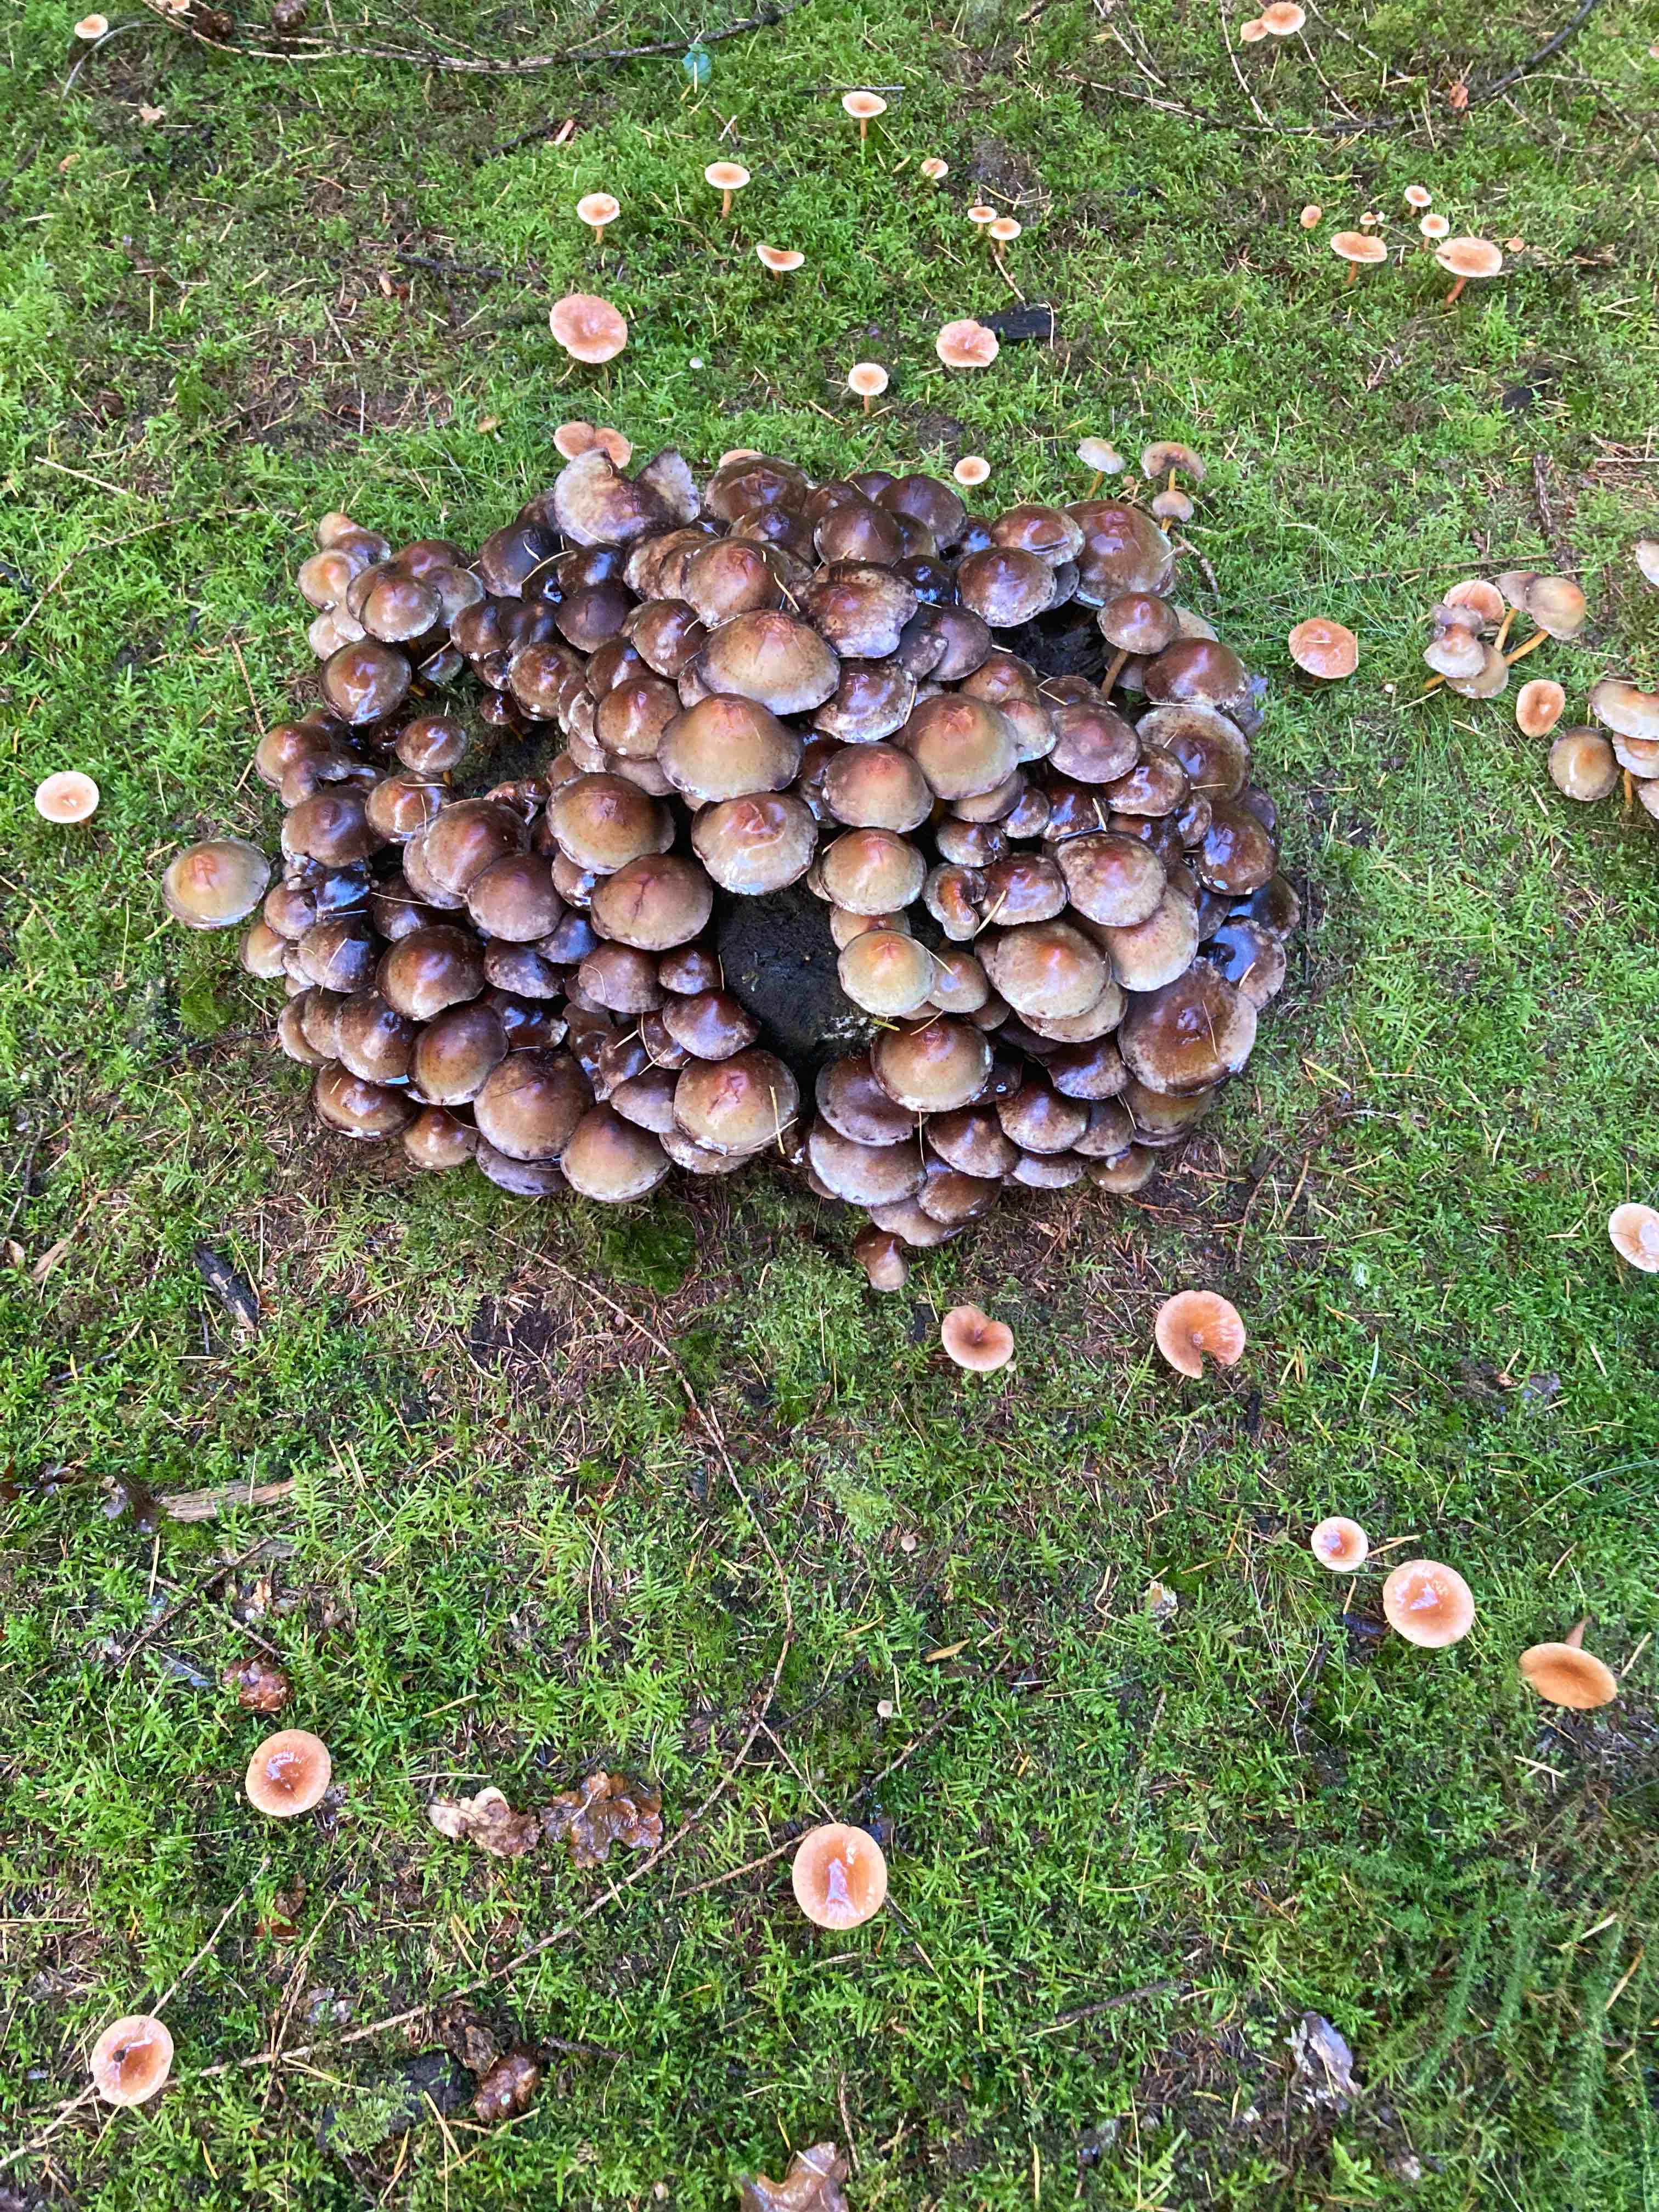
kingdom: Fungi
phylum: Basidiomycota
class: Agaricomycetes
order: Agaricales
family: Strophariaceae
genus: Hypholoma
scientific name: Hypholoma
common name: svovlhat
